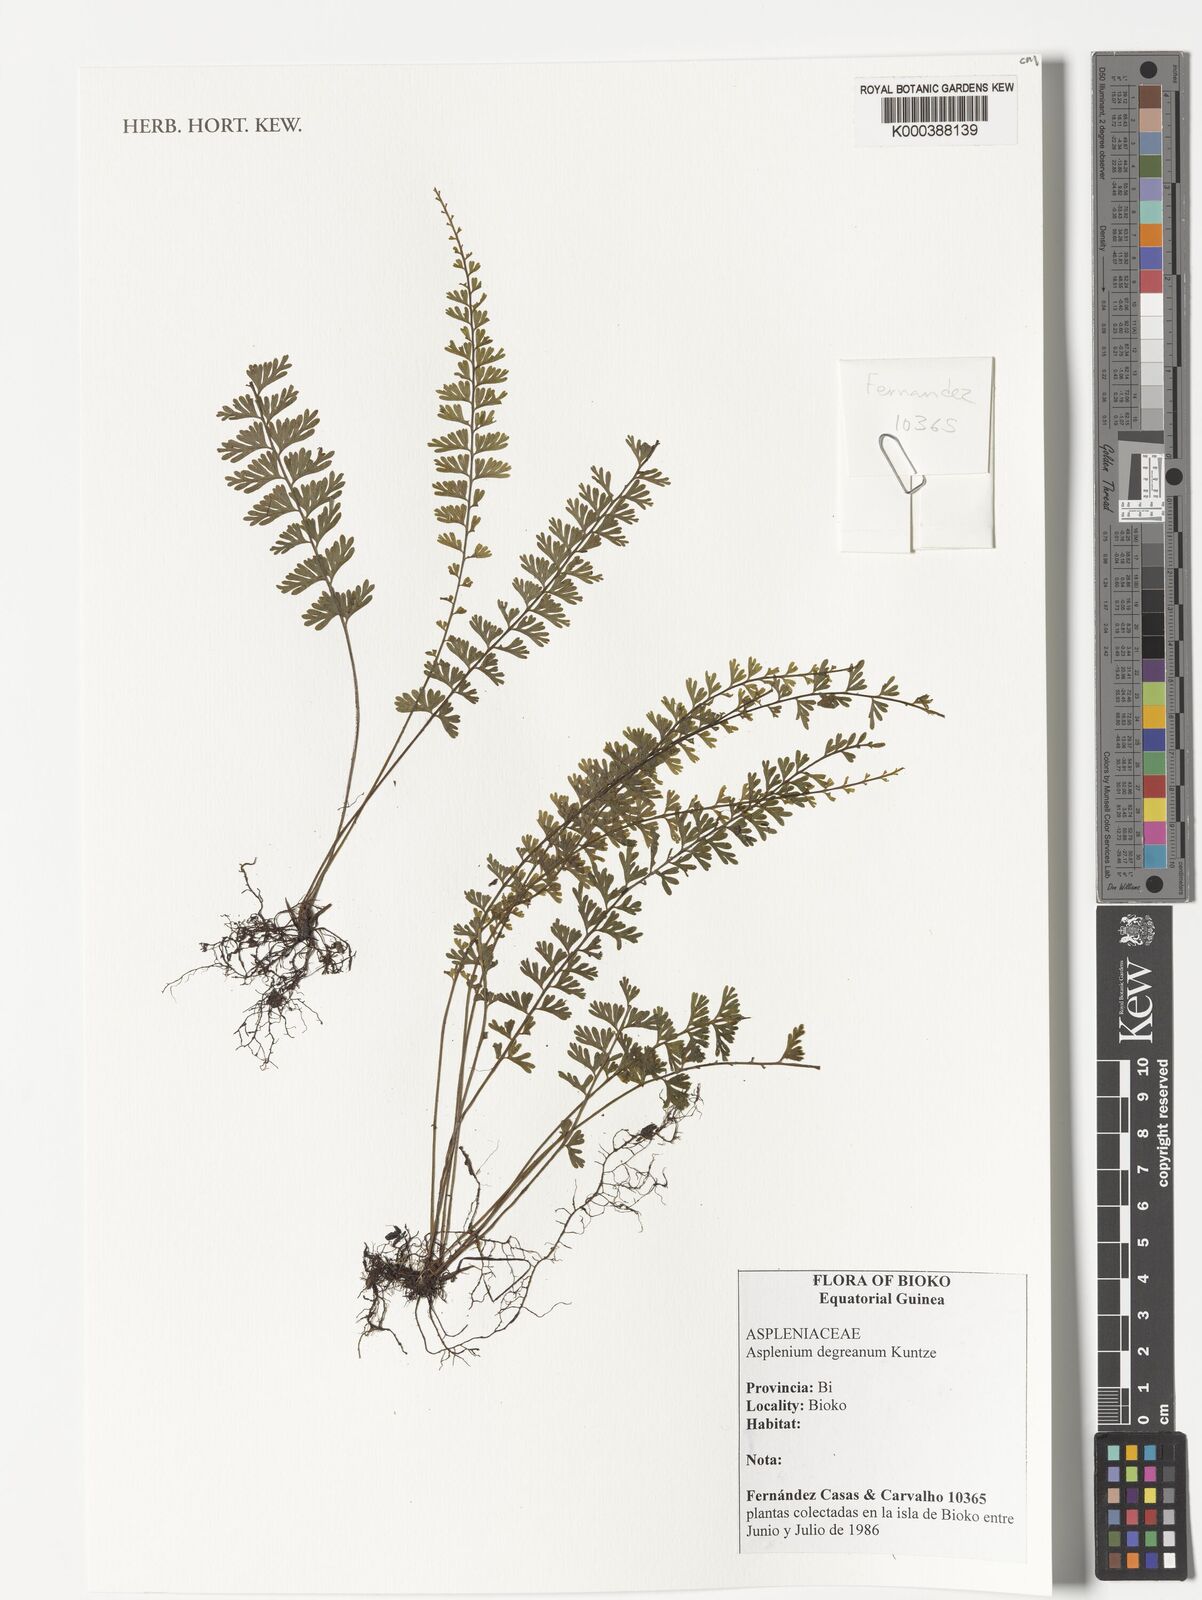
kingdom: Plantae
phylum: Tracheophyta
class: Polypodiopsida
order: Polypodiales
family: Aspleniaceae
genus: Asplenium
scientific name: Asplenium
